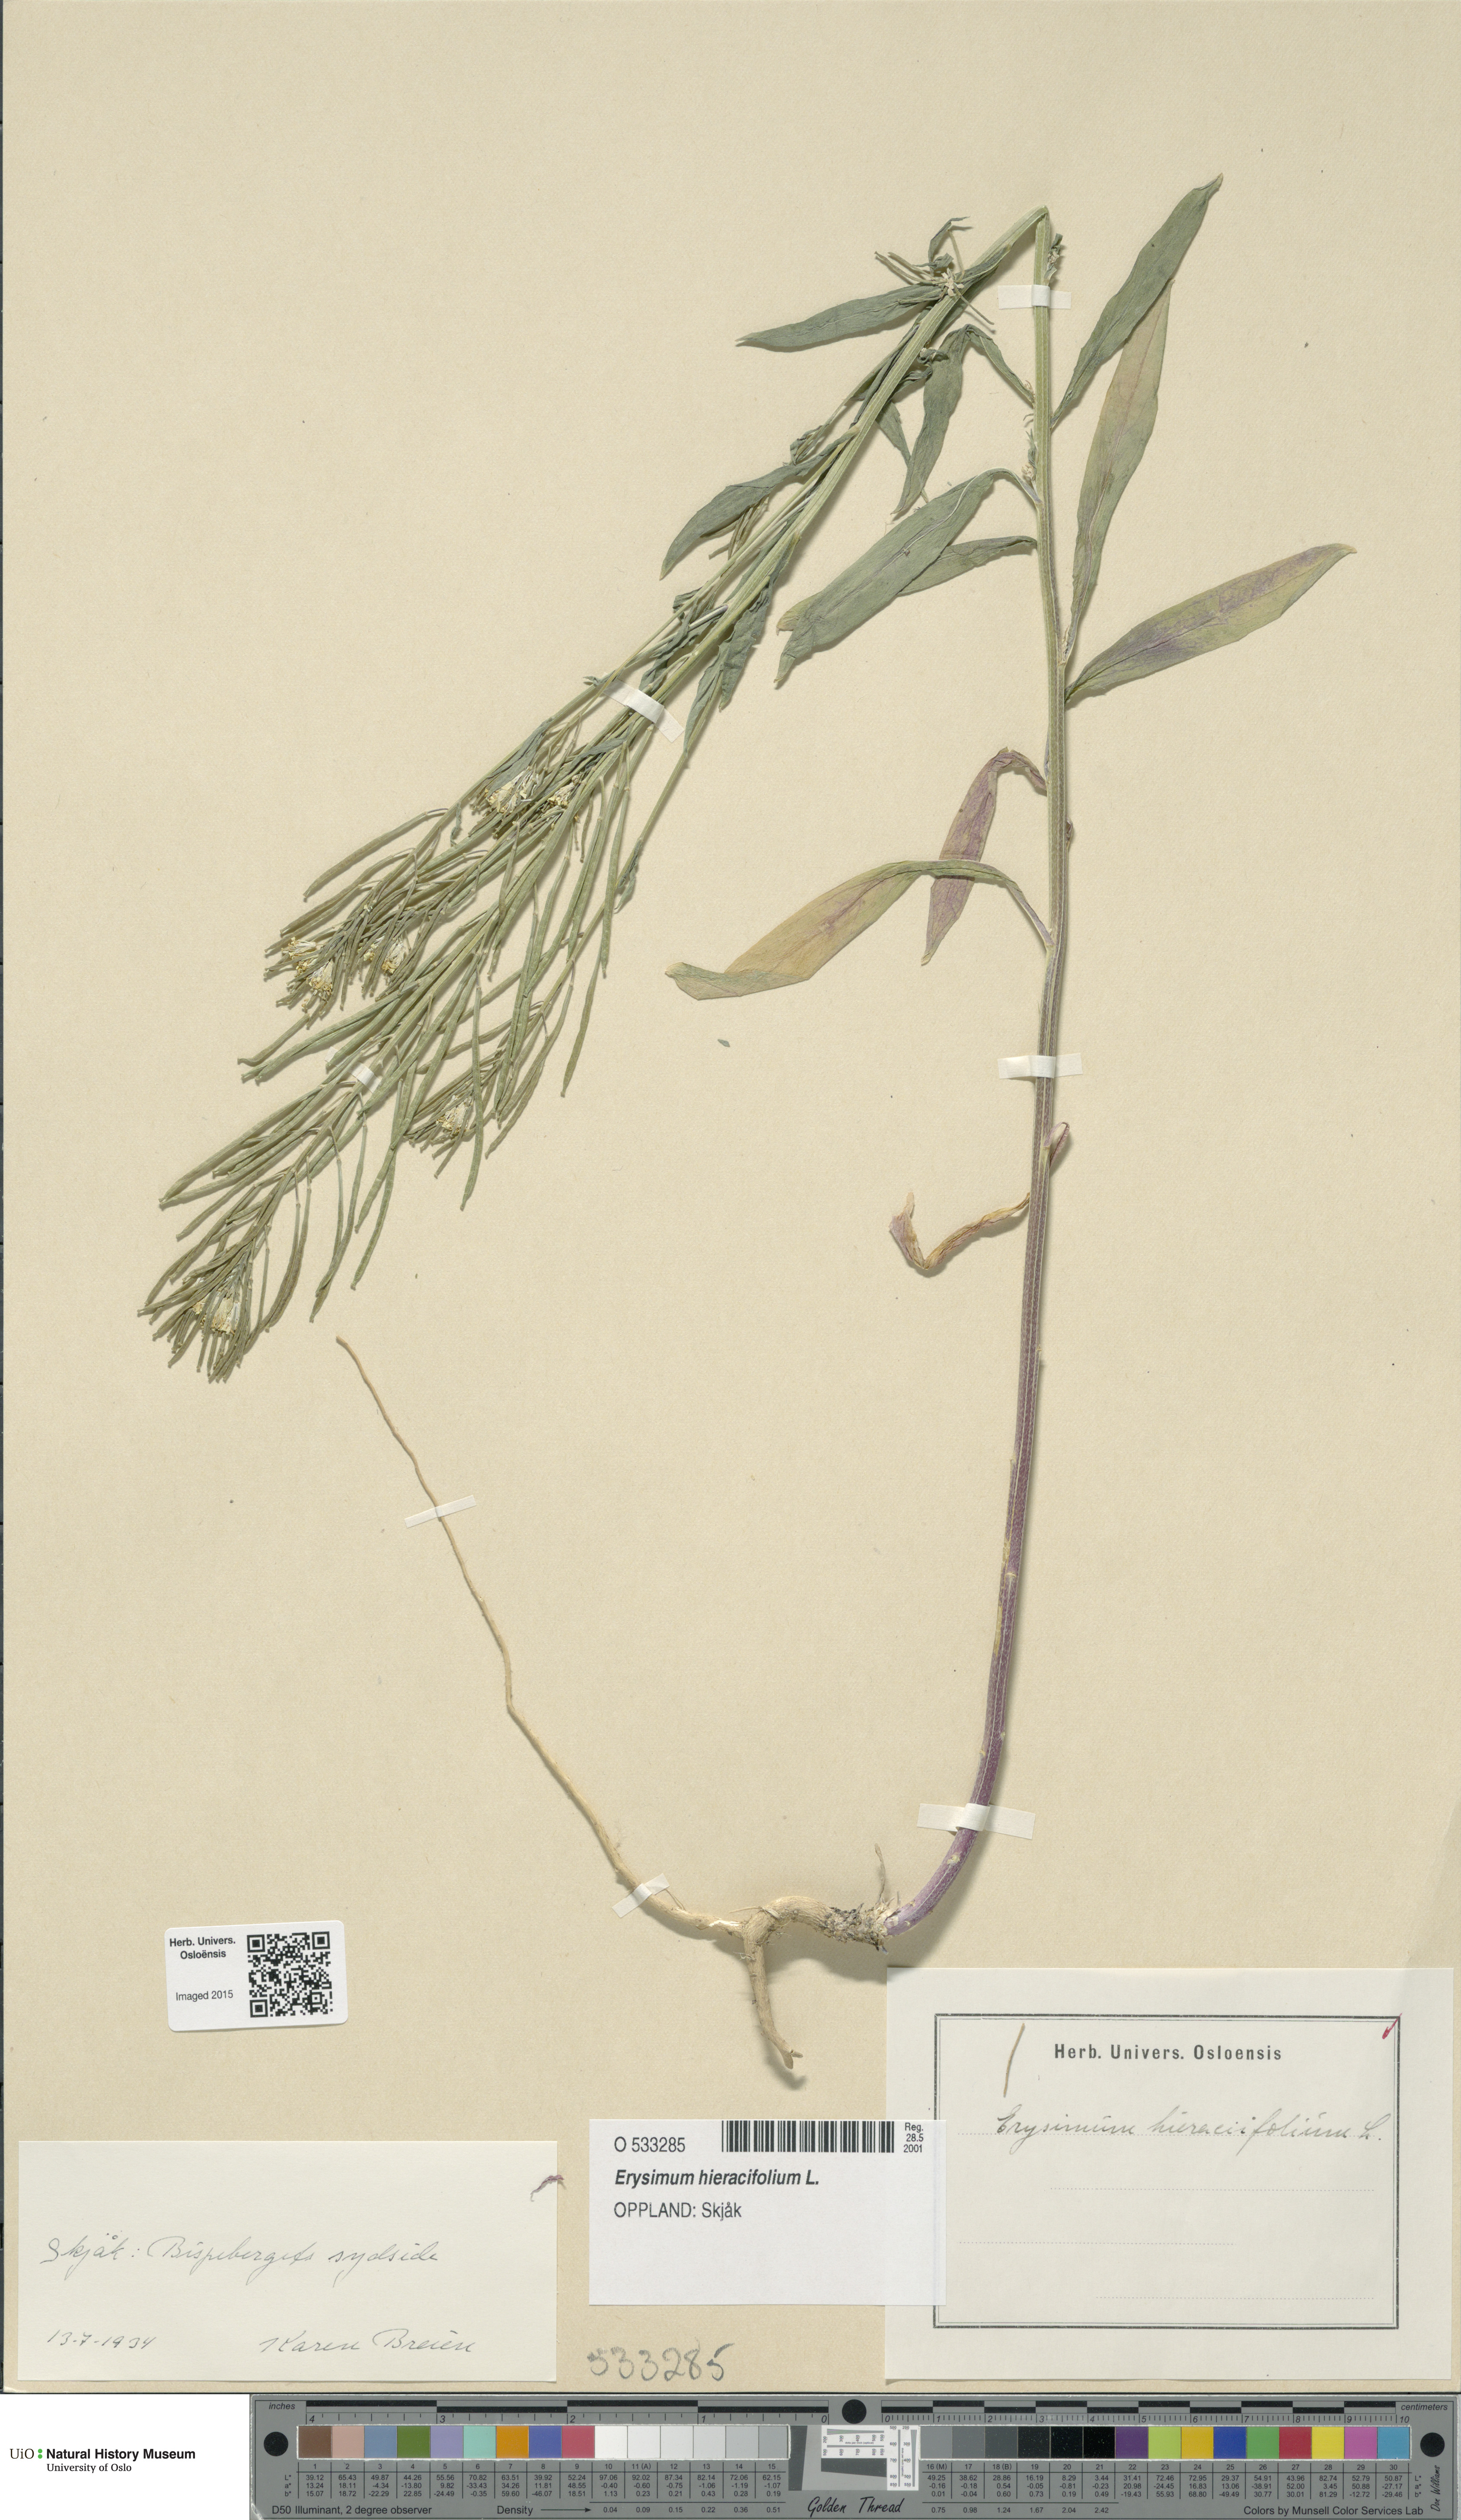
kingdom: Plantae
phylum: Tracheophyta
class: Magnoliopsida
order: Brassicales
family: Brassicaceae
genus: Erysimum
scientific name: Erysimum hieraciifolium
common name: European wallflower
